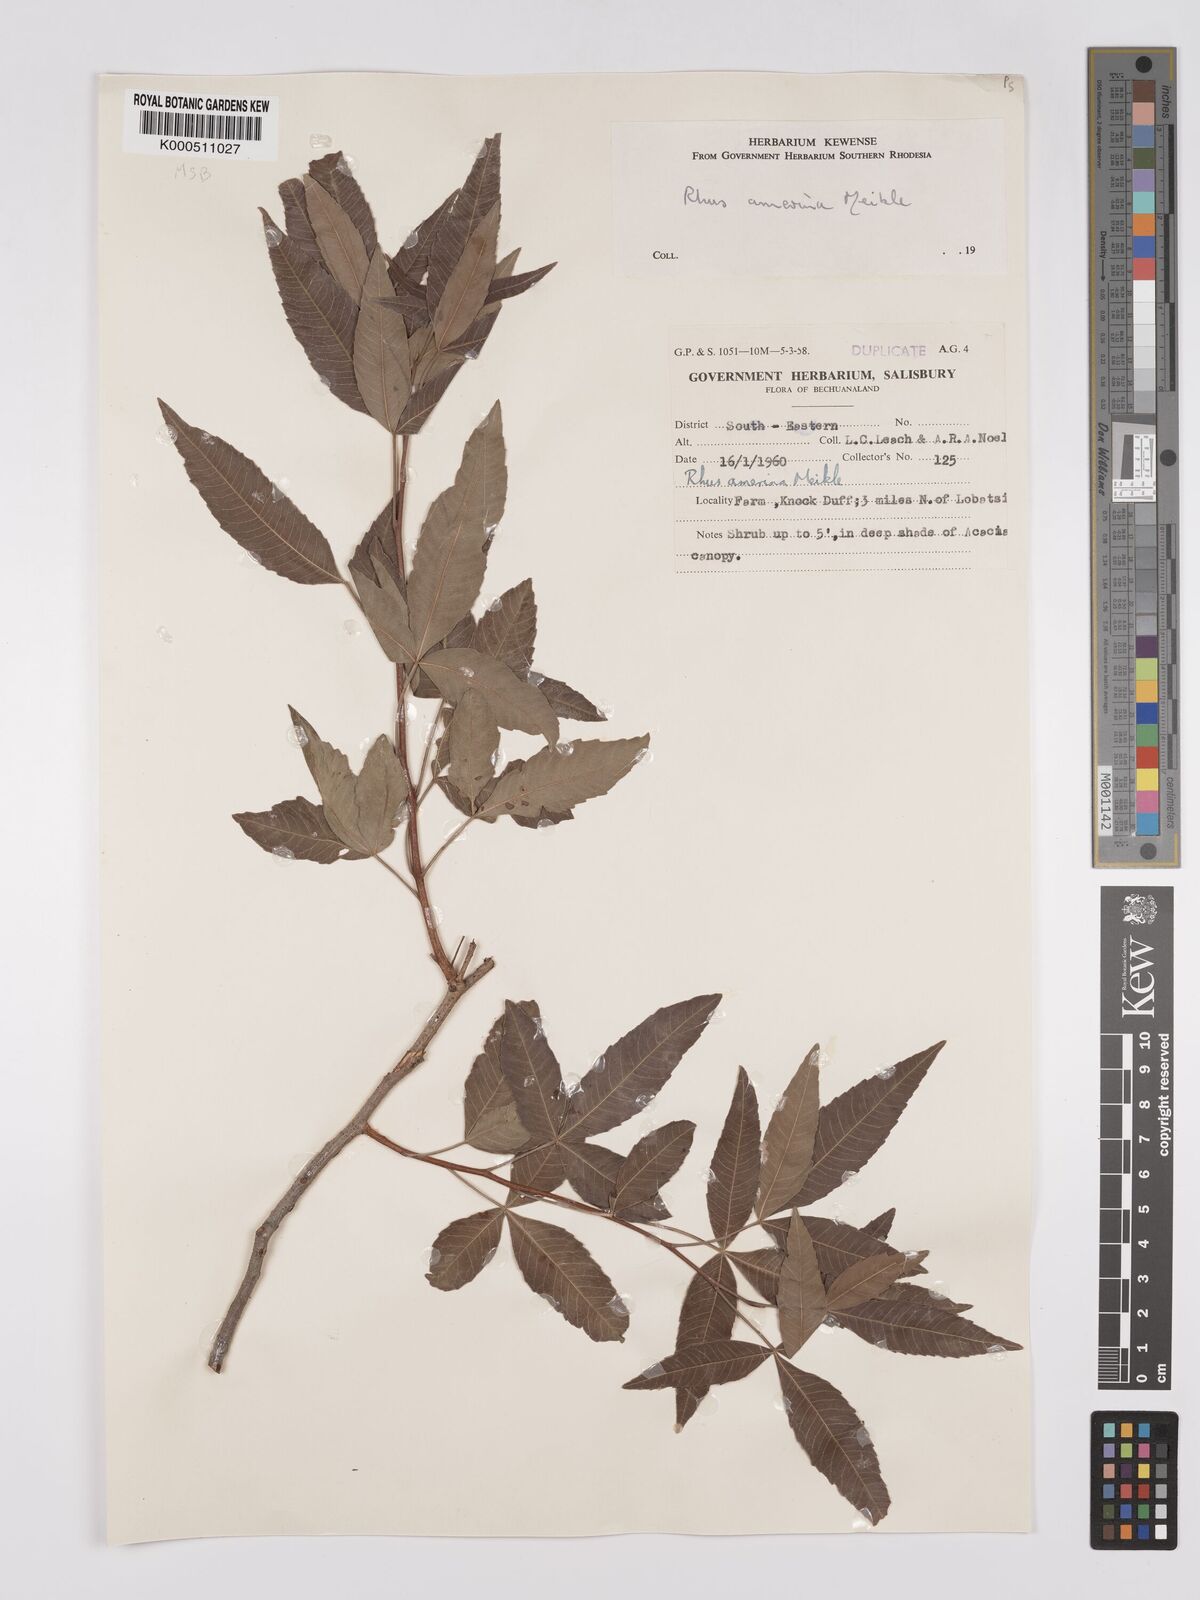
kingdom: Plantae
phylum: Tracheophyta
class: Magnoliopsida
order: Sapindales
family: Anacardiaceae
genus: Searsia
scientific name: Searsia leptodictya
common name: Mountain karee
